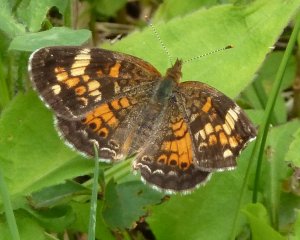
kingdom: Animalia
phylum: Arthropoda
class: Insecta
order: Lepidoptera
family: Nymphalidae
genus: Phyciodes
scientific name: Phyciodes tharos
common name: Northern Crescent
